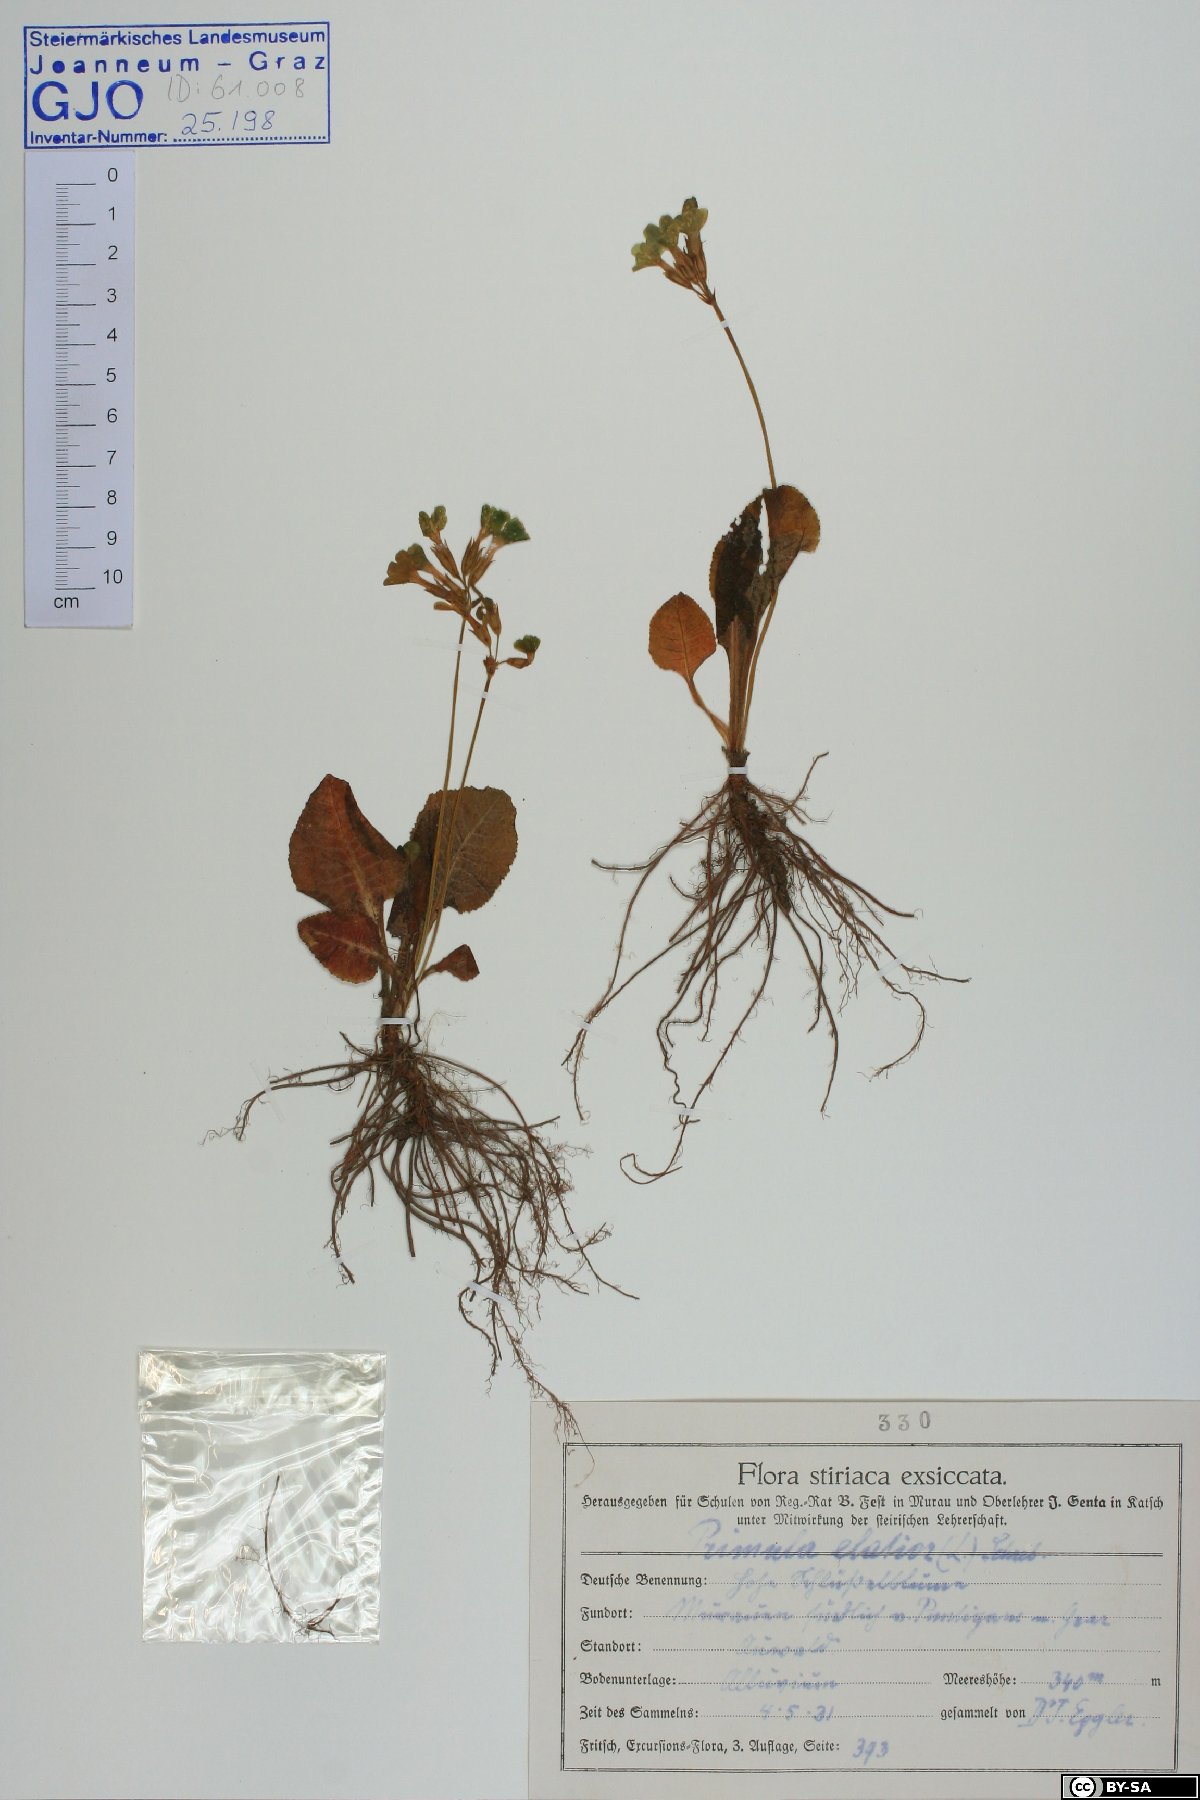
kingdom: Plantae
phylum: Tracheophyta
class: Magnoliopsida
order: Ericales
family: Primulaceae
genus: Primula
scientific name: Primula elatior
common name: Oxlip
